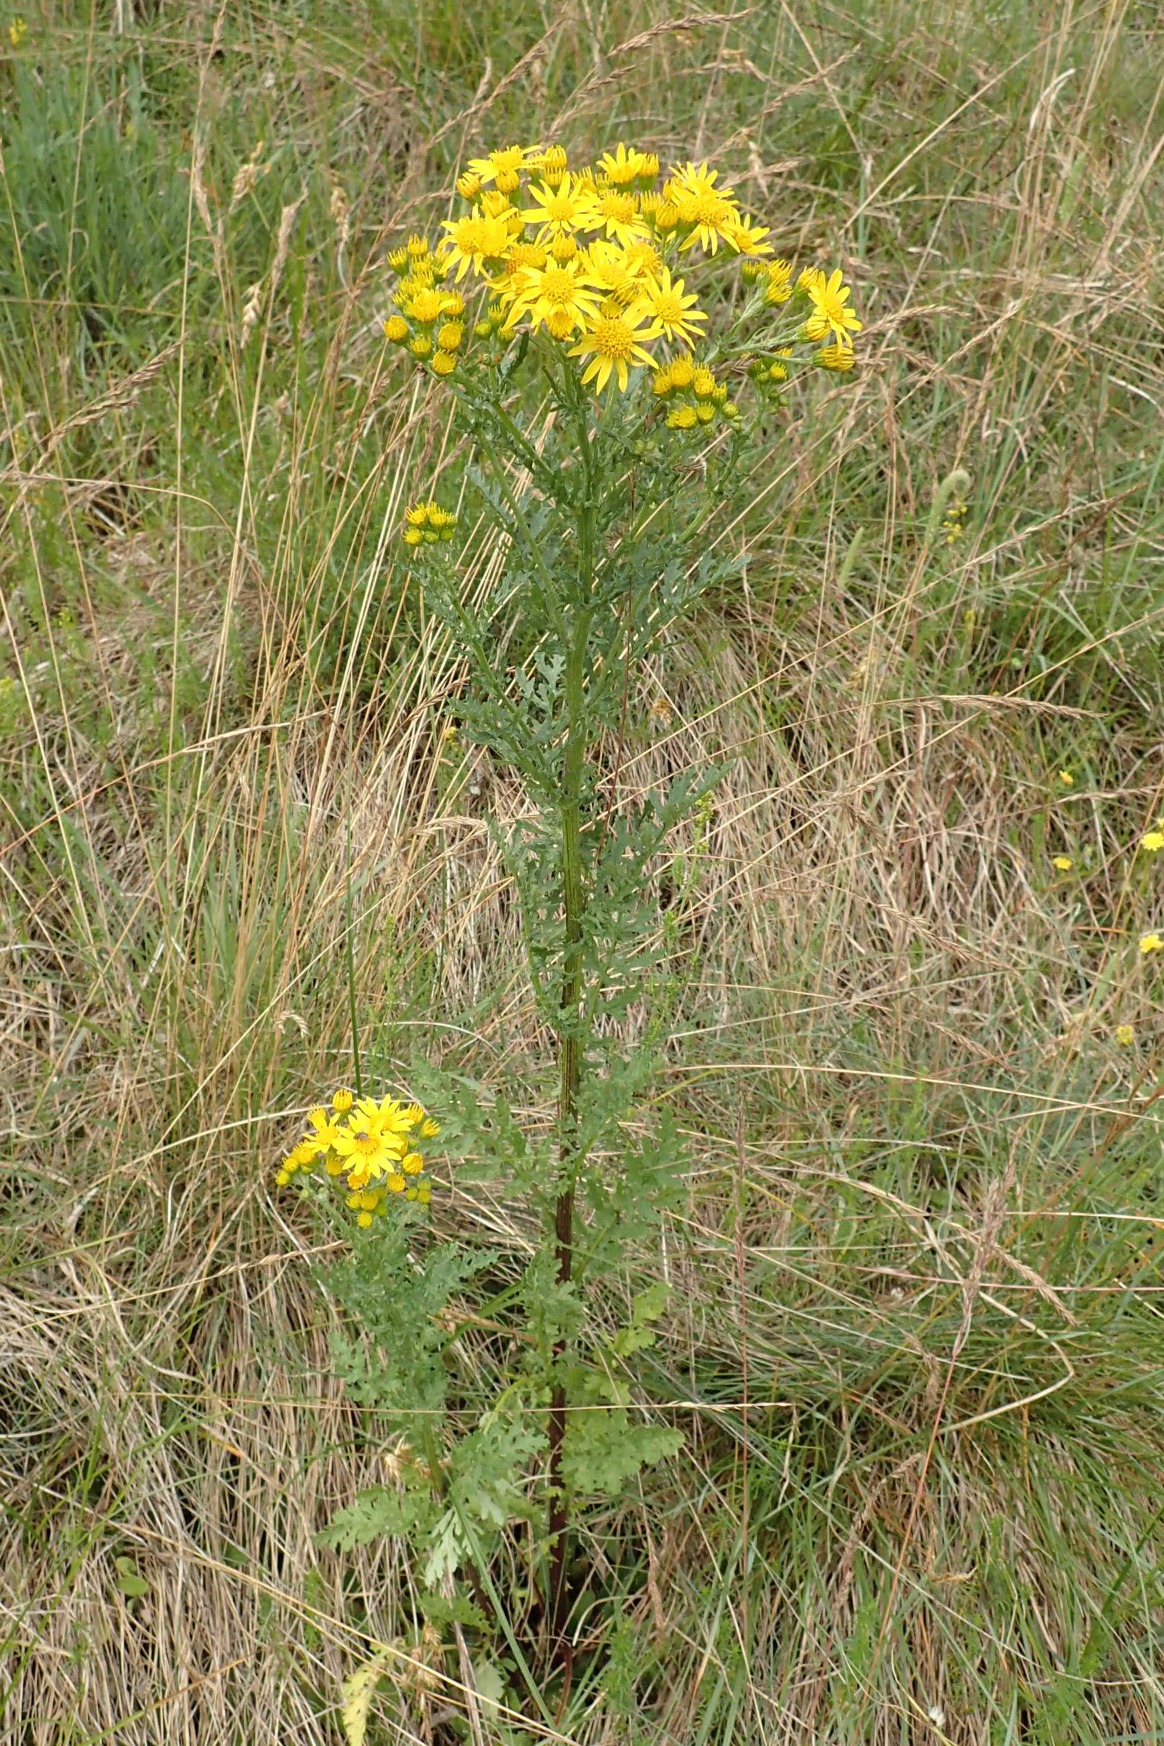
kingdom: Plantae
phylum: Tracheophyta
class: Magnoliopsida
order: Asterales
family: Asteraceae
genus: Jacobaea
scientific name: Jacobaea vulgaris
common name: Eng-brandbæger
